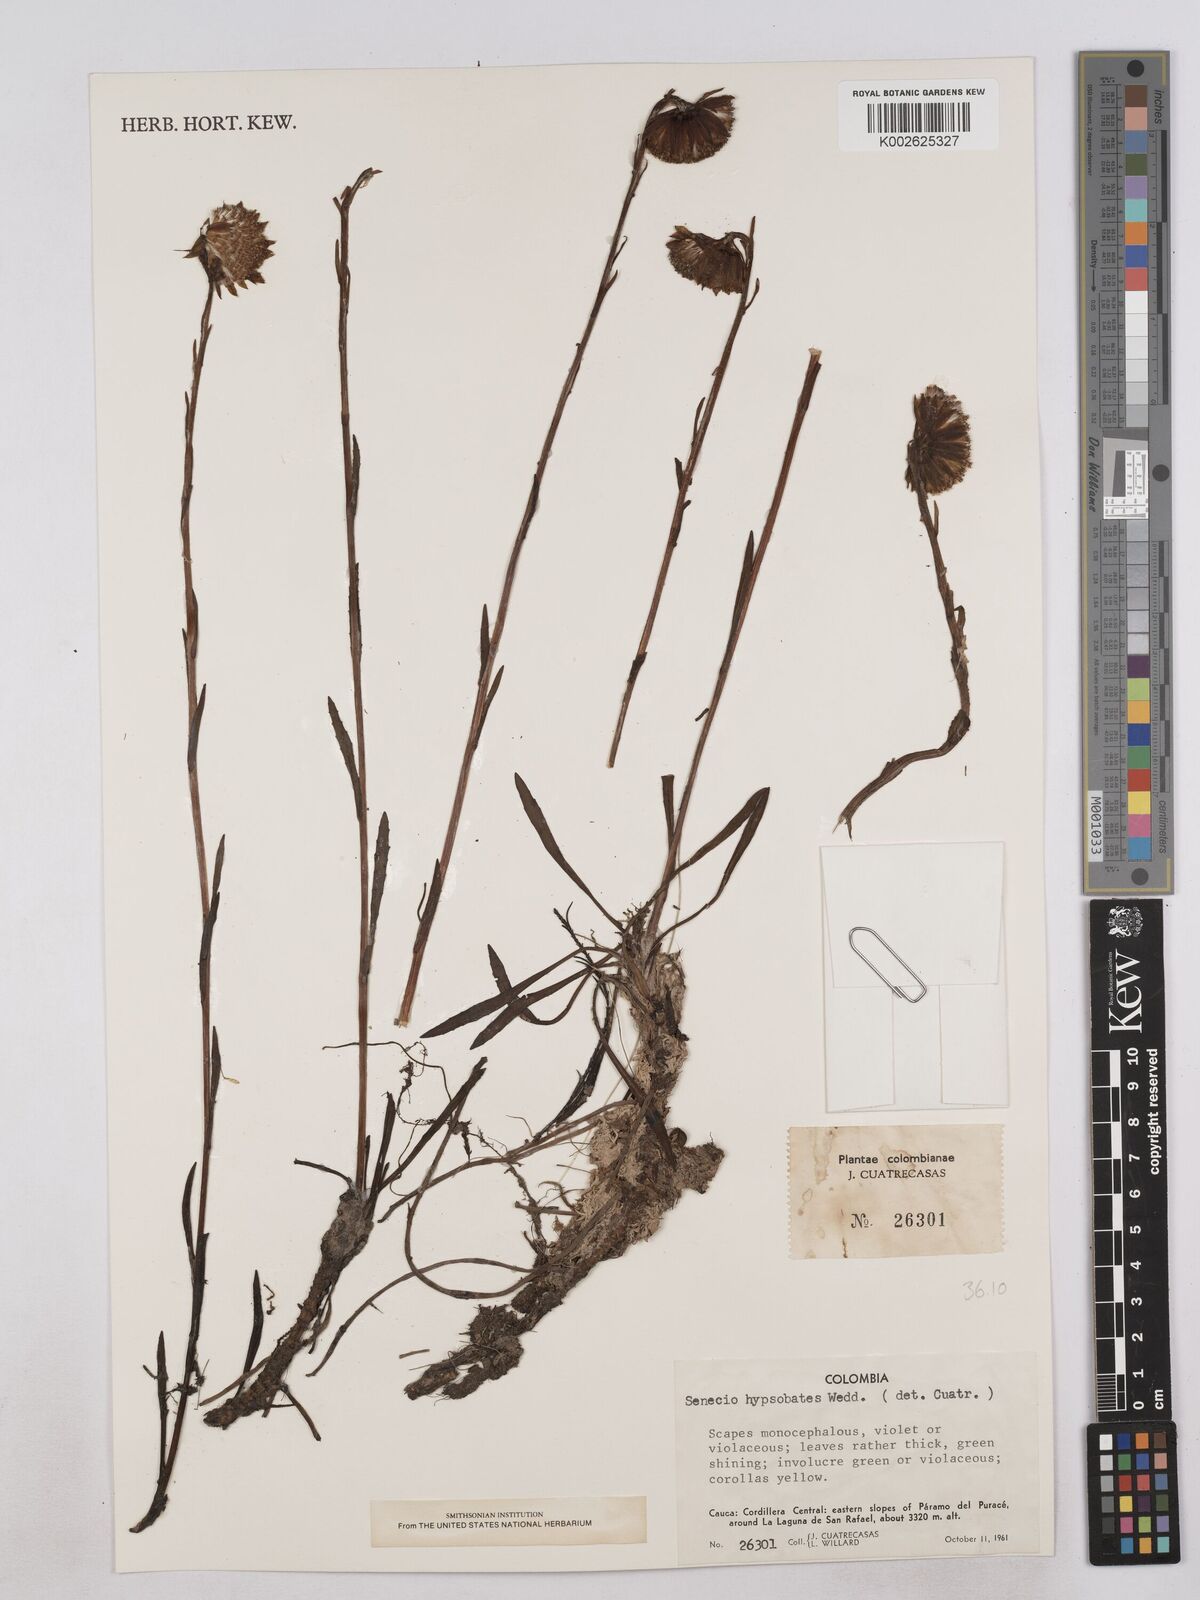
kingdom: Plantae
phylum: Tracheophyta
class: Magnoliopsida
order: Asterales
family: Asteraceae
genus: Senecio
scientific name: Senecio hypsobates
